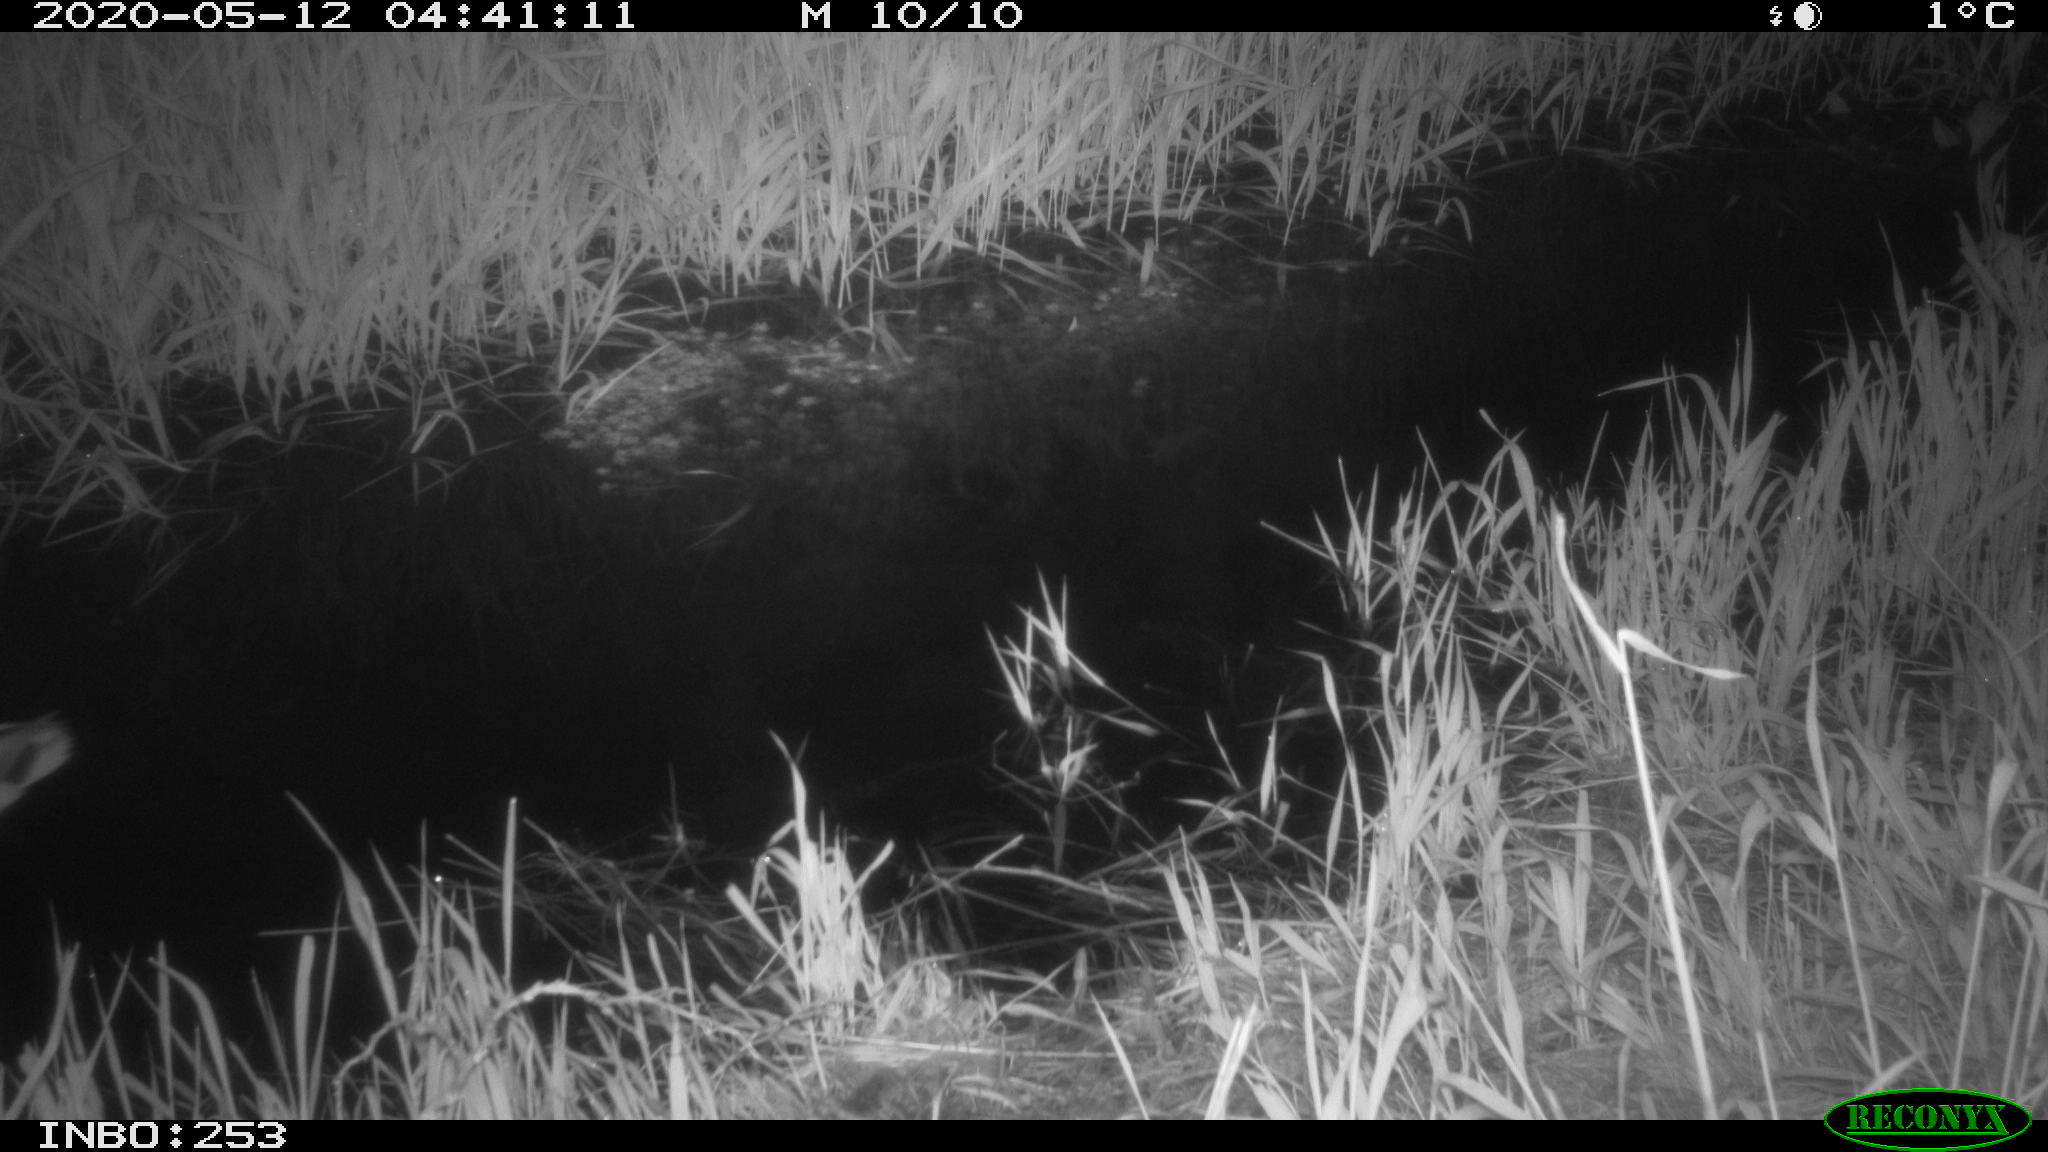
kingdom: Animalia
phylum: Chordata
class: Aves
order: Anseriformes
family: Anatidae
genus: Anas
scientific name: Anas platyrhynchos
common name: Mallard
